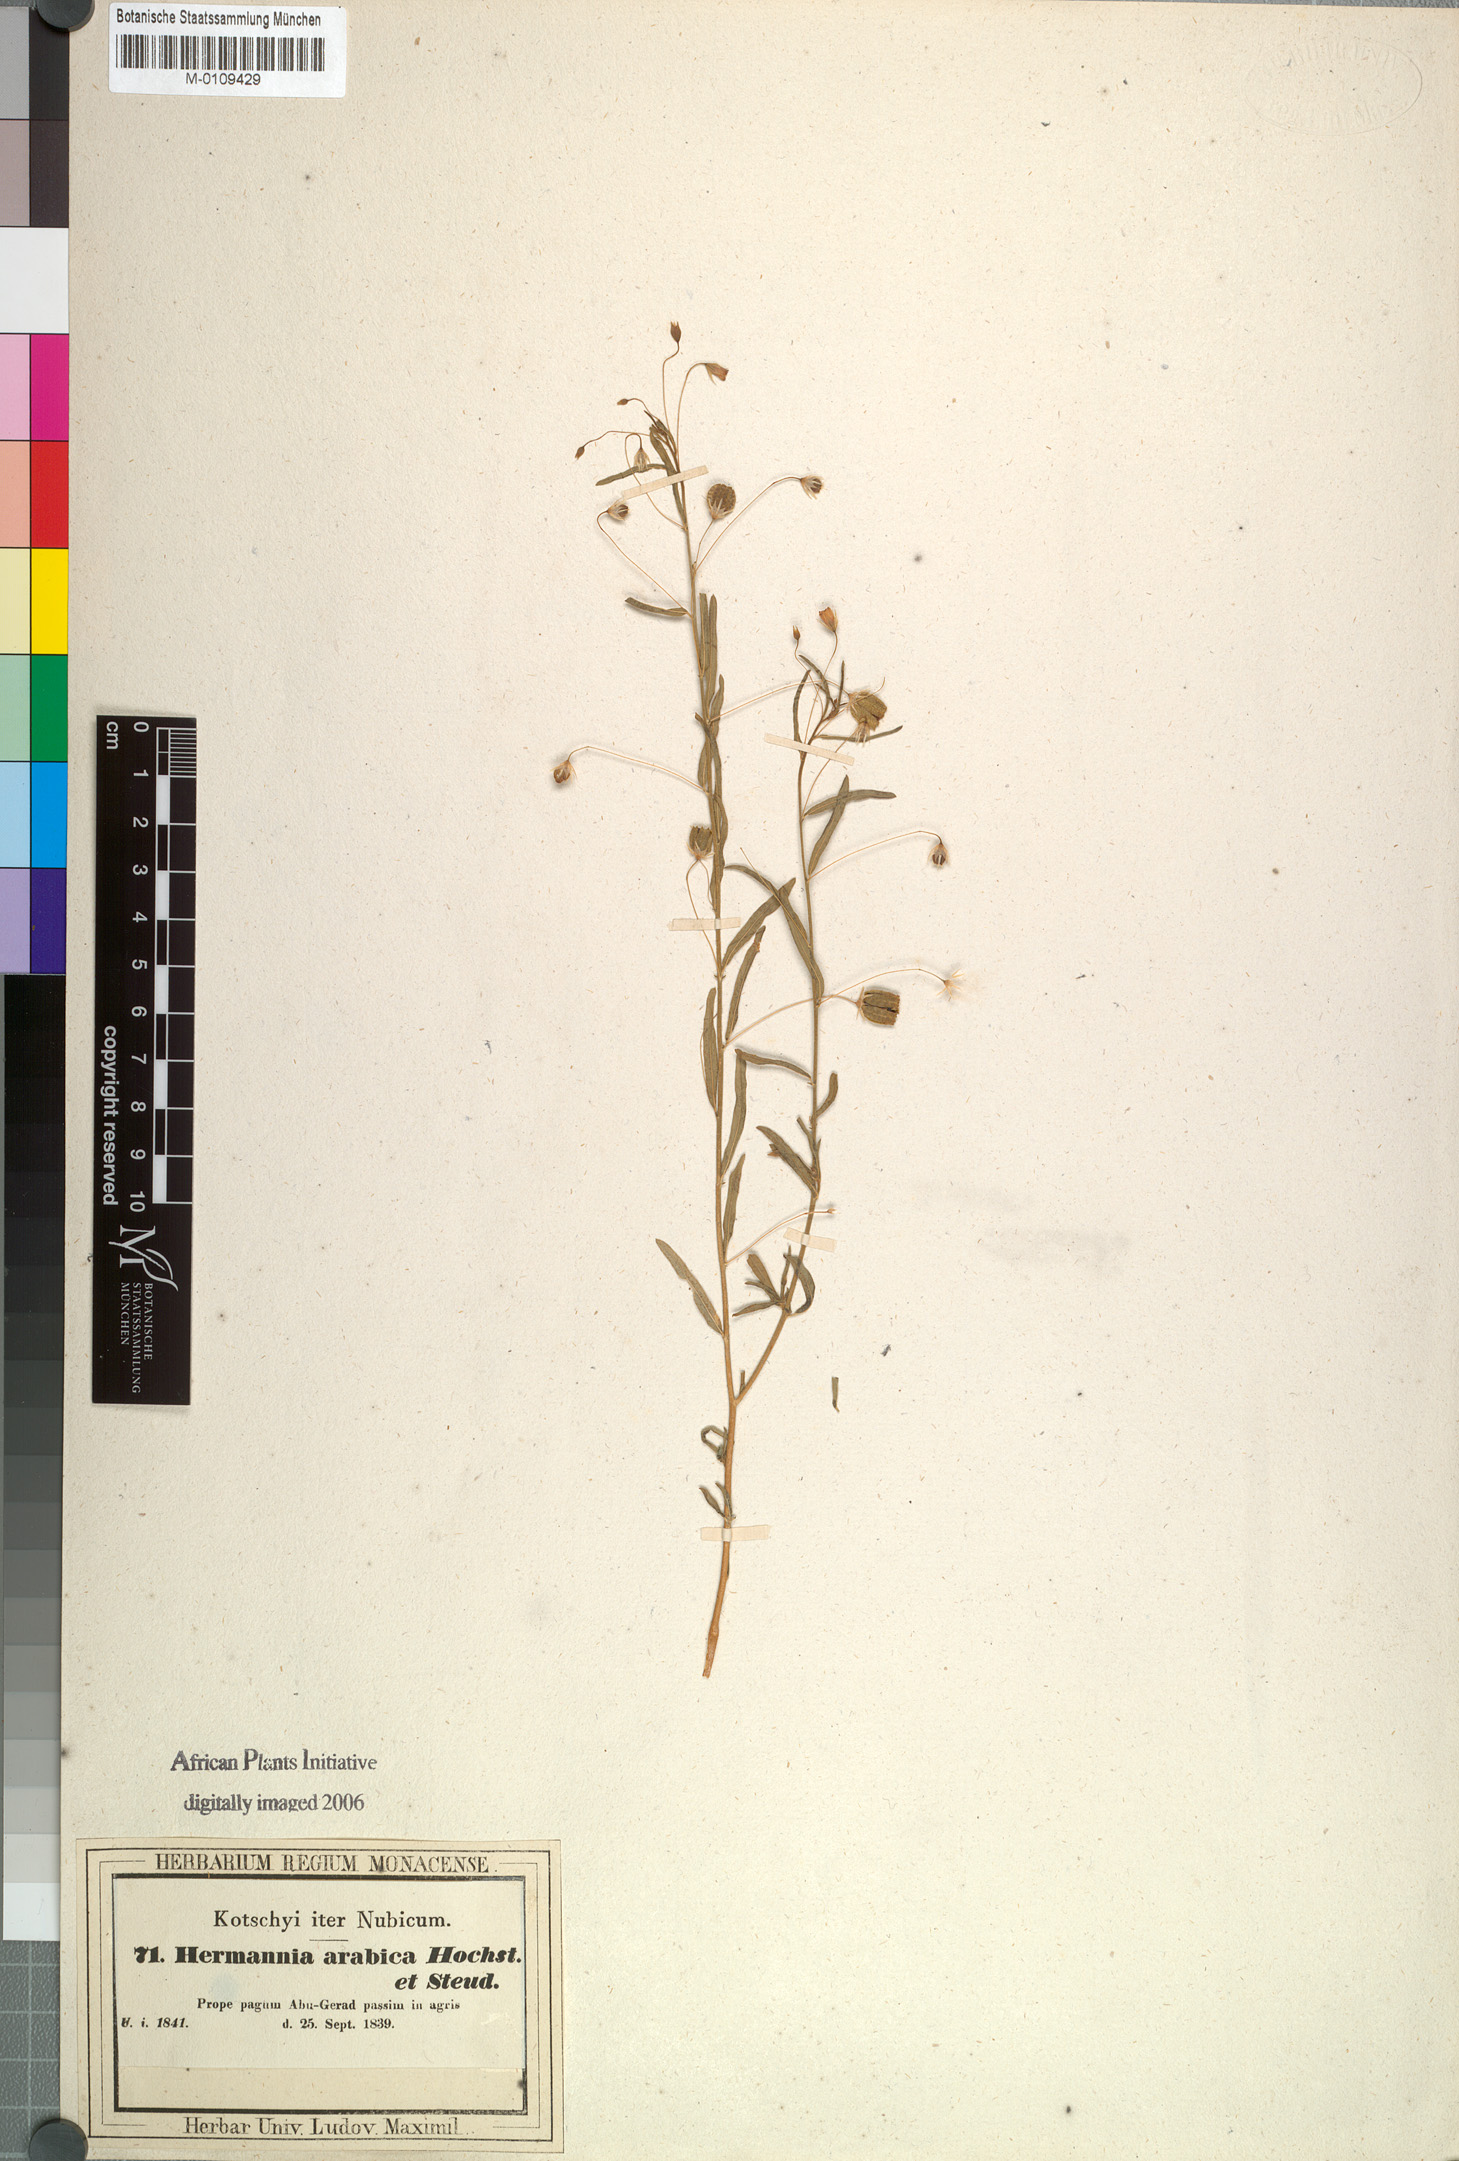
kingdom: Plantae
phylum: Tracheophyta
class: Magnoliopsida
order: Malvales
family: Malvaceae
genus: Hermannia
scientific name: Hermannia modesta
